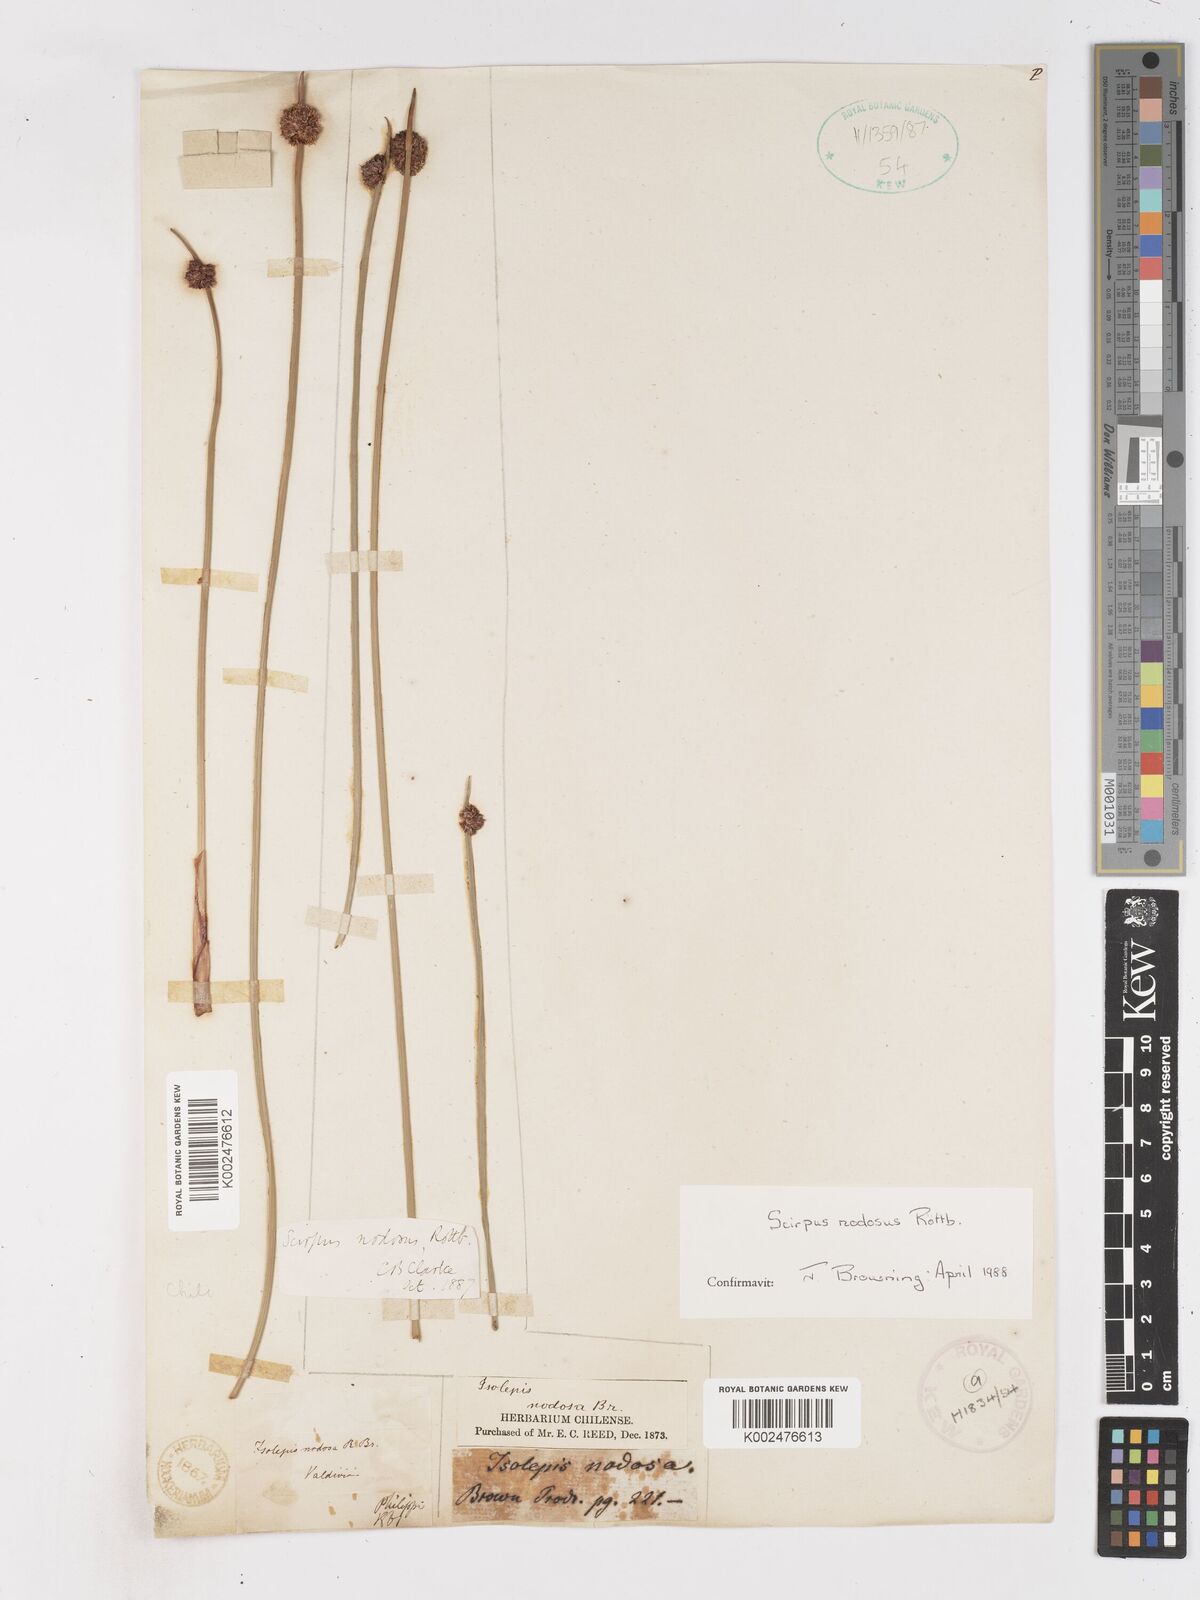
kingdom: Plantae
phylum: Tracheophyta
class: Liliopsida
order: Poales
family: Cyperaceae
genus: Ficinia
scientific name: Ficinia nodosa
